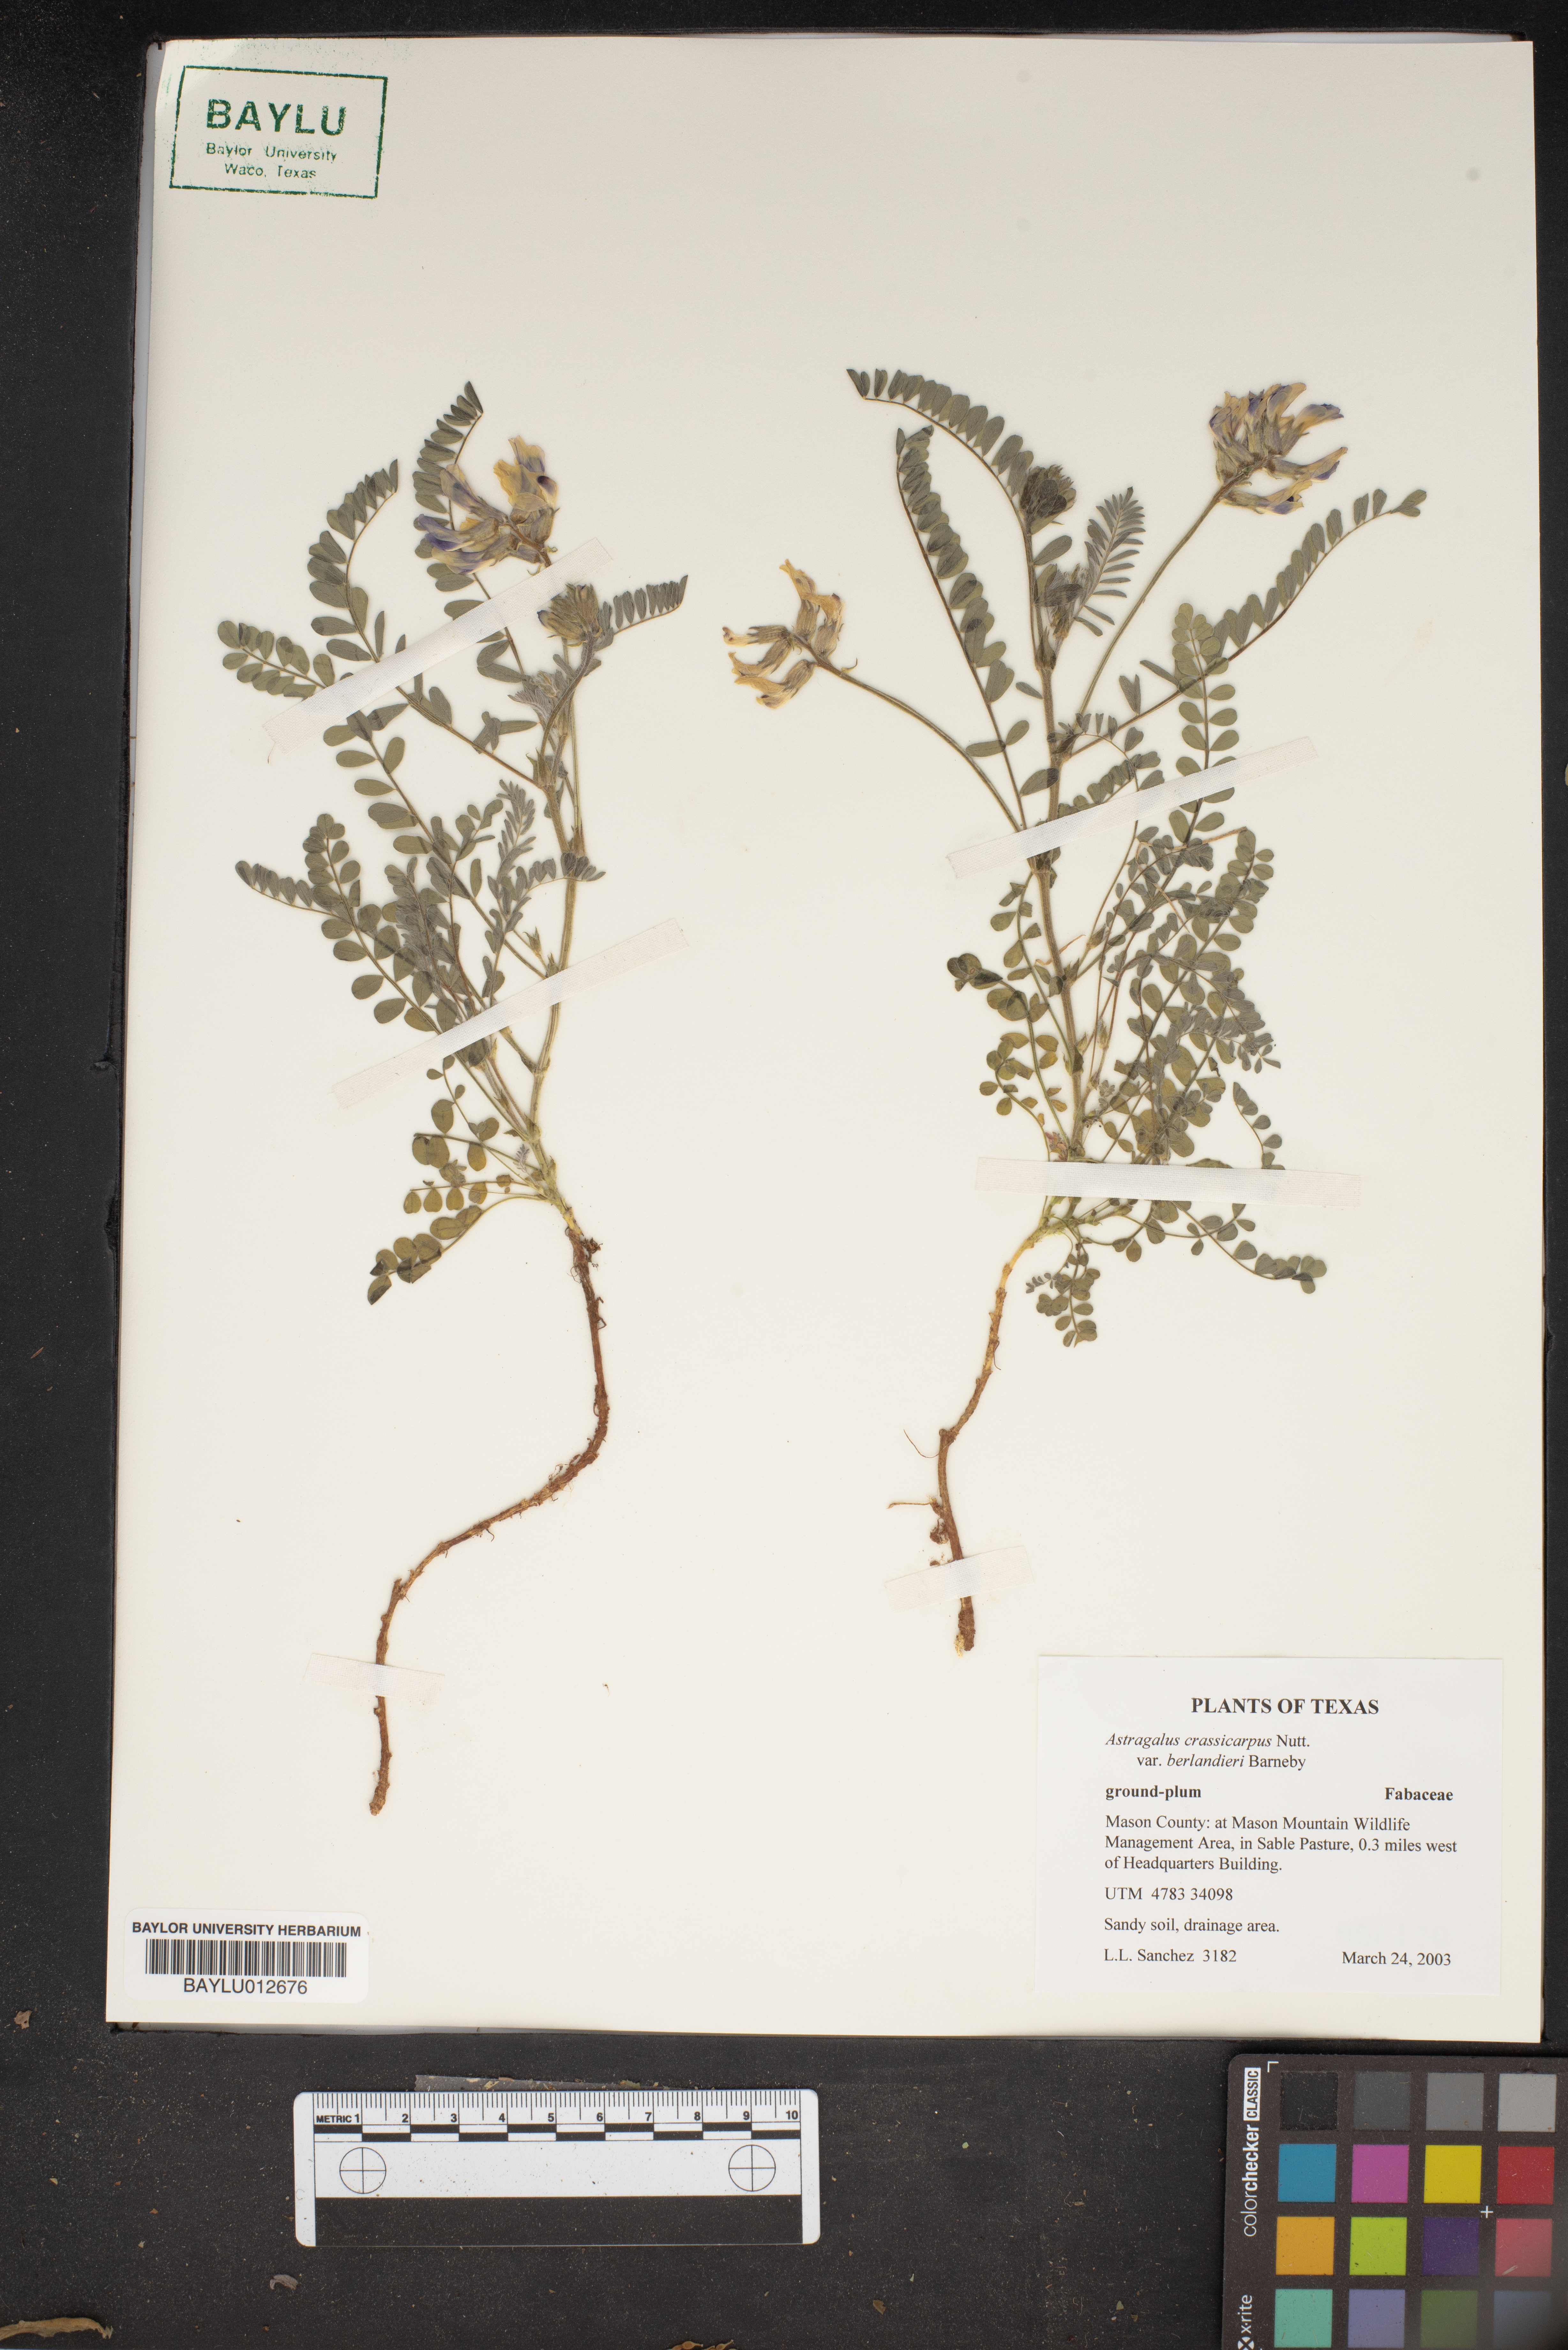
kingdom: Plantae
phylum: Tracheophyta
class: Magnoliopsida
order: Fabales
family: Fabaceae
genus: Astragalus
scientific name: Astragalus crassicarpus
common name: Ground-plum milk-vetch
